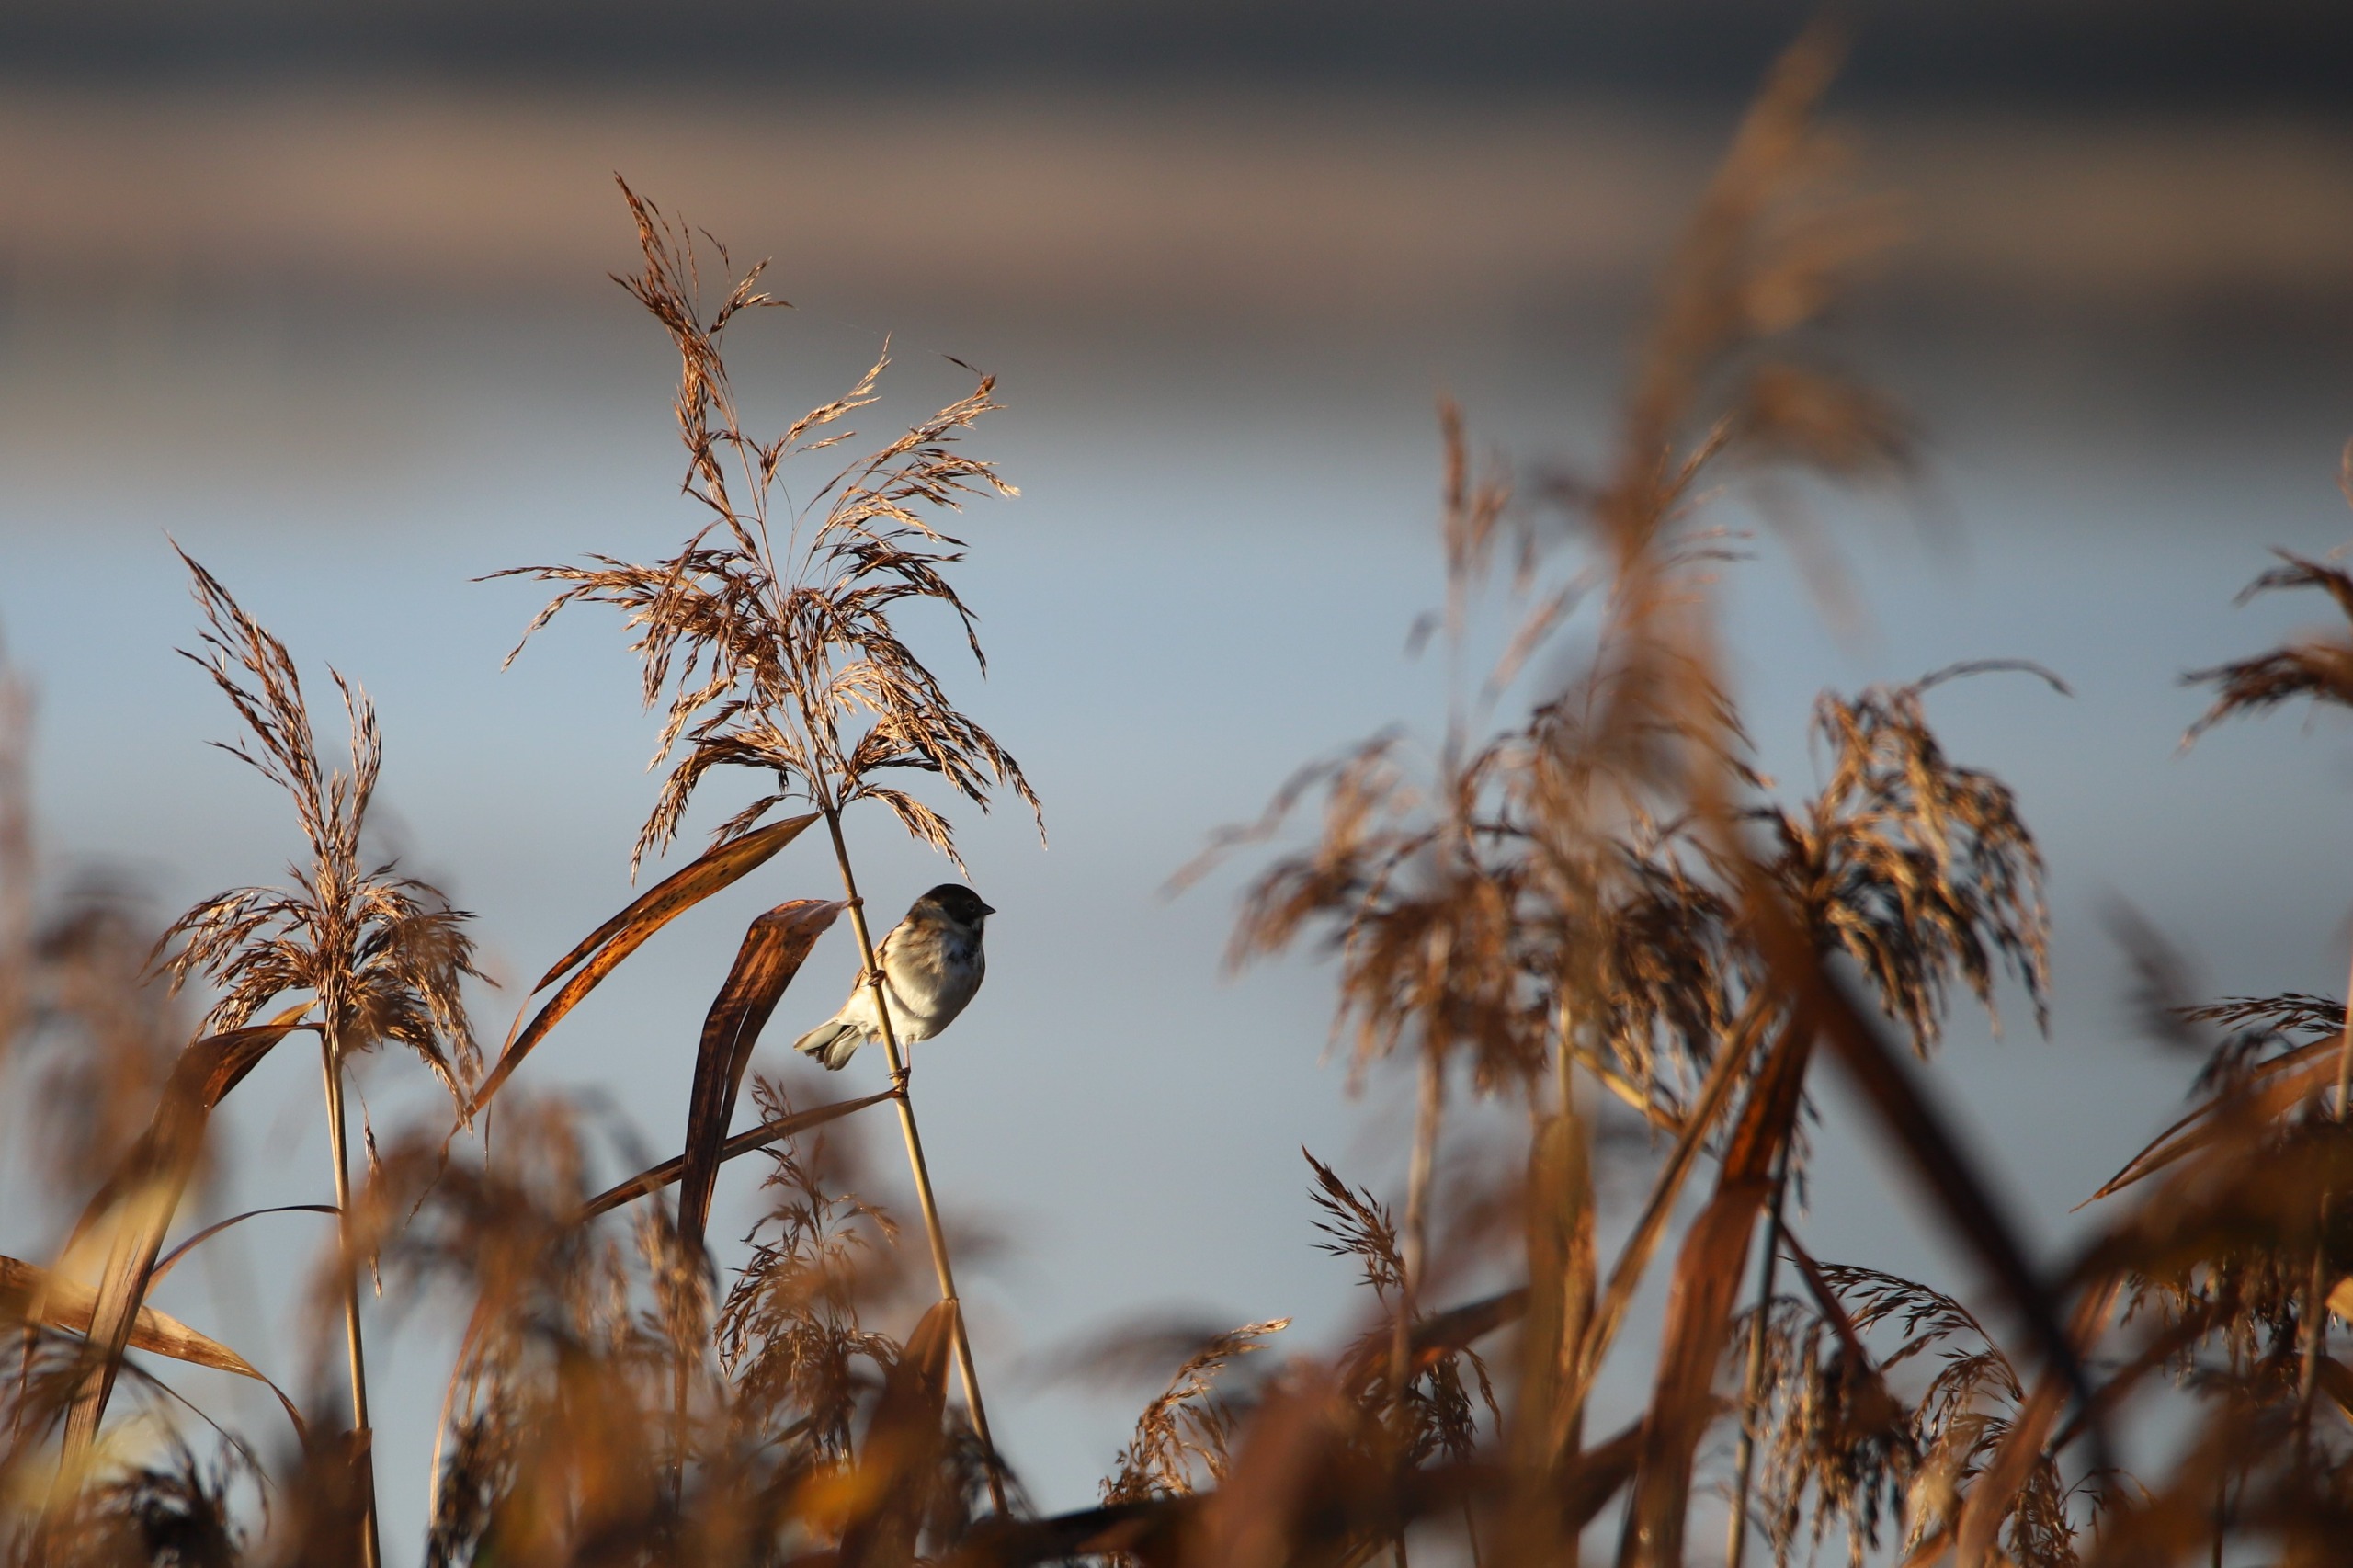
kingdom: Animalia
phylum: Chordata
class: Aves
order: Passeriformes
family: Emberizidae
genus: Emberiza
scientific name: Emberiza schoeniclus
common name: Rørspurv
